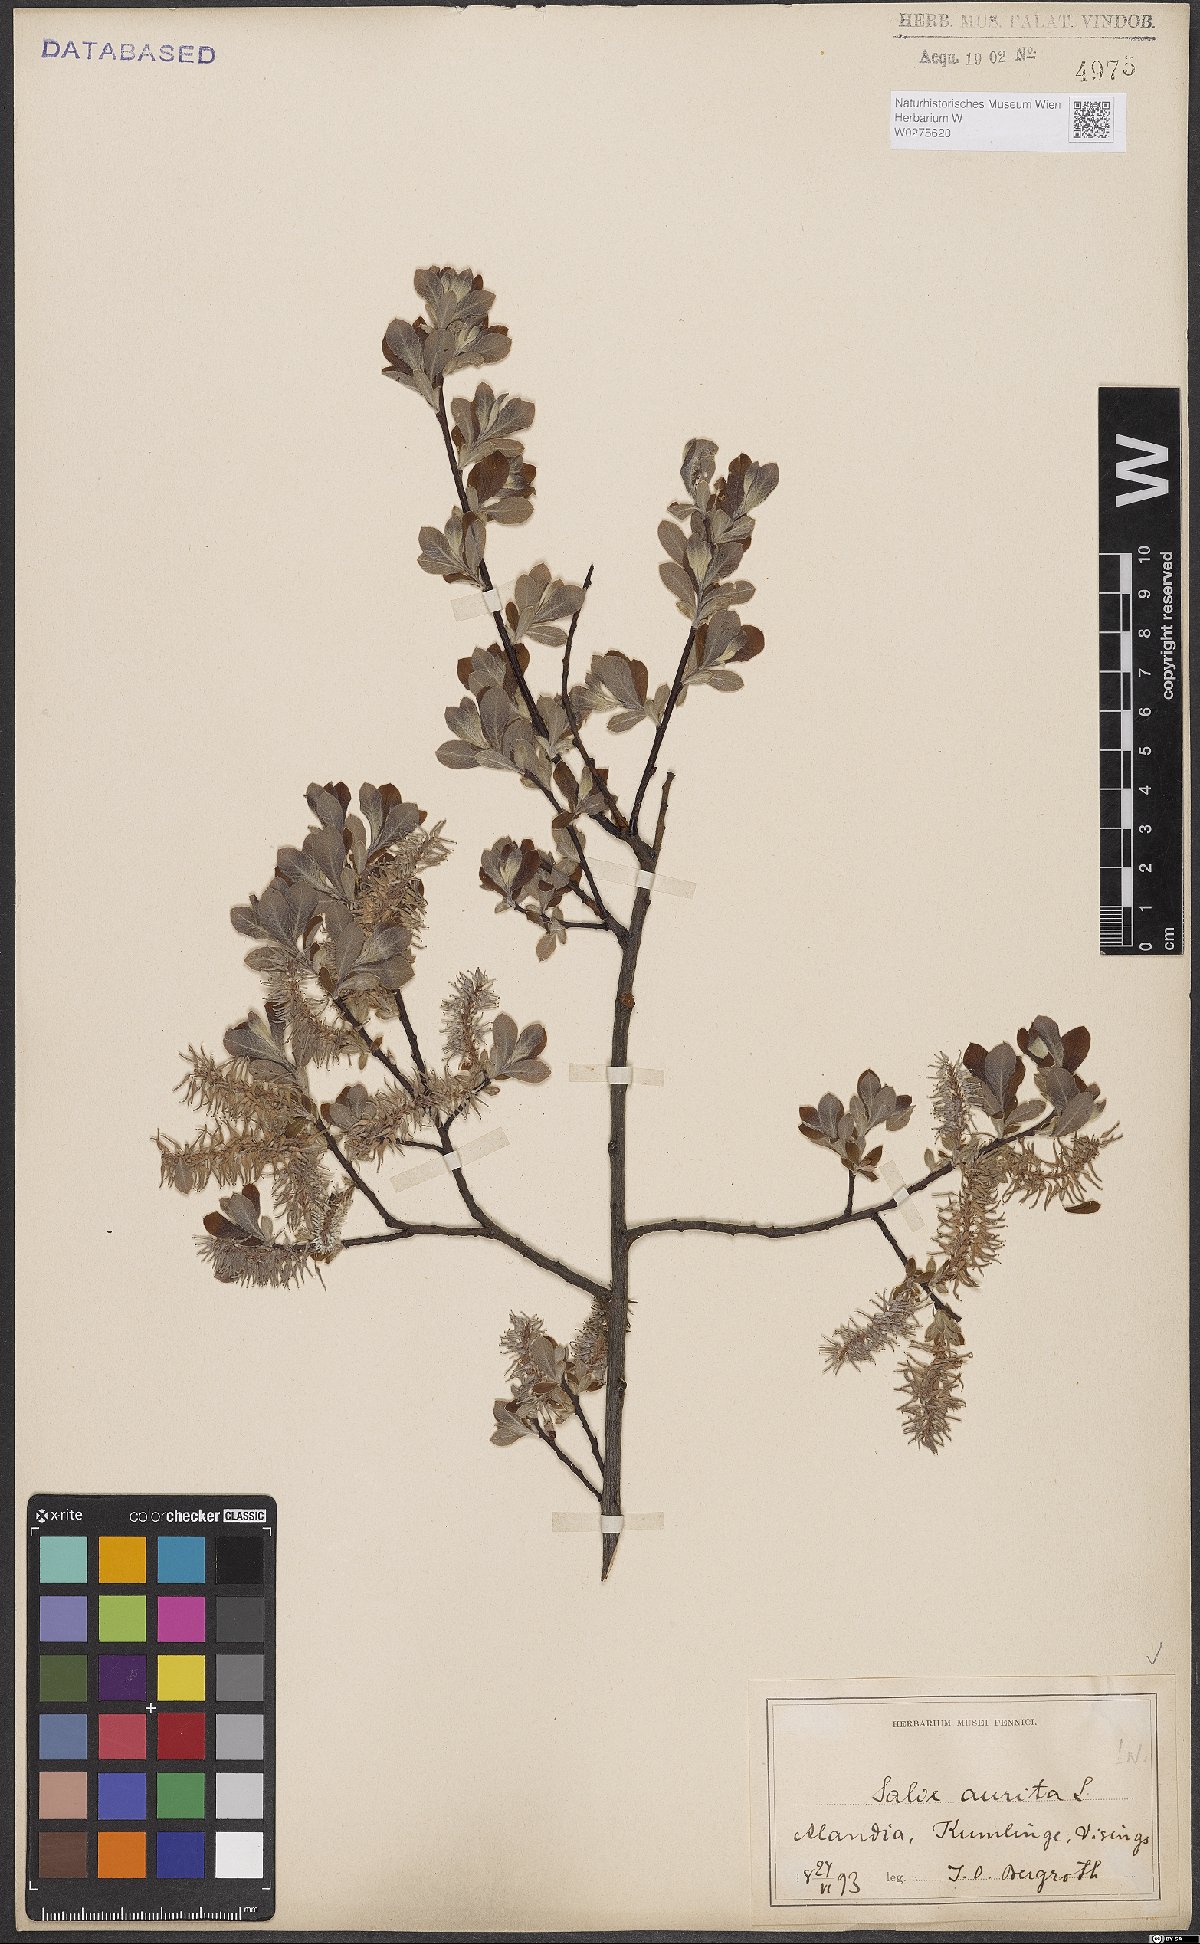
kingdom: Plantae
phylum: Tracheophyta
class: Magnoliopsida
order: Malpighiales
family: Salicaceae
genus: Salix
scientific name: Salix aurita
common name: Eared willow
